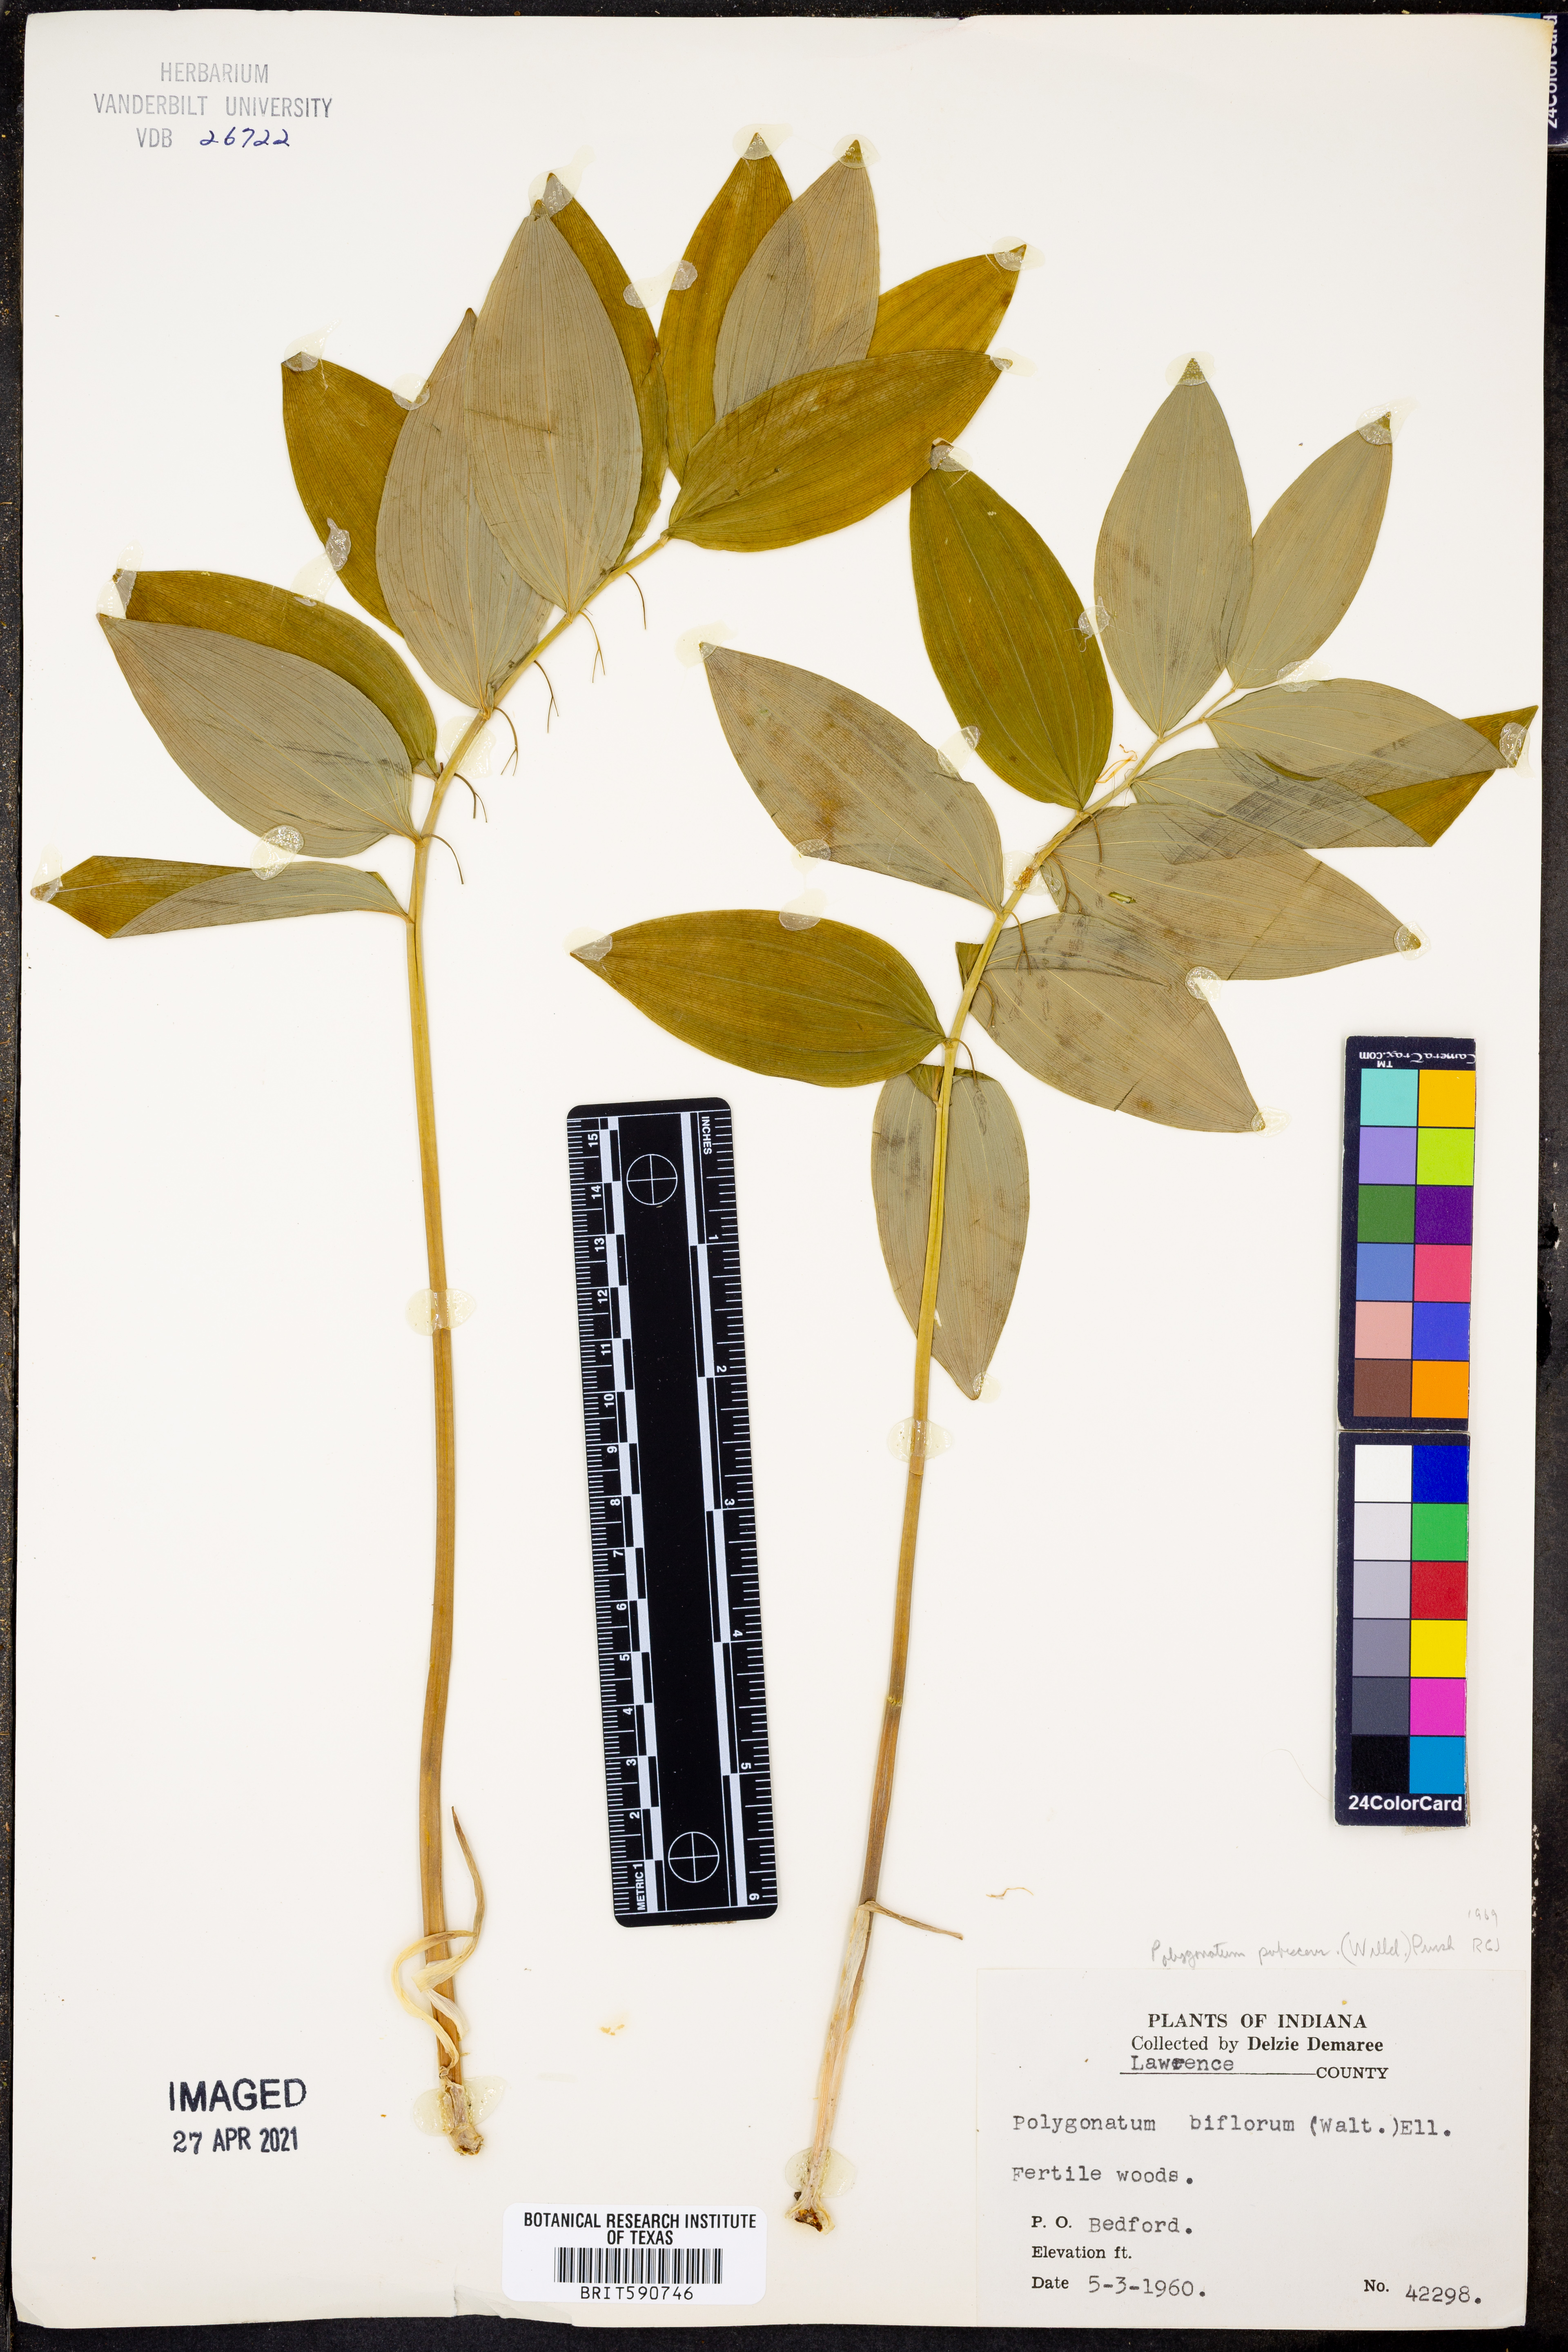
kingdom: Plantae
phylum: Tracheophyta
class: Liliopsida
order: Asparagales
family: Asparagaceae
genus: Polygonatum
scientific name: Polygonatum pubescens
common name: Downy solomon's seal
